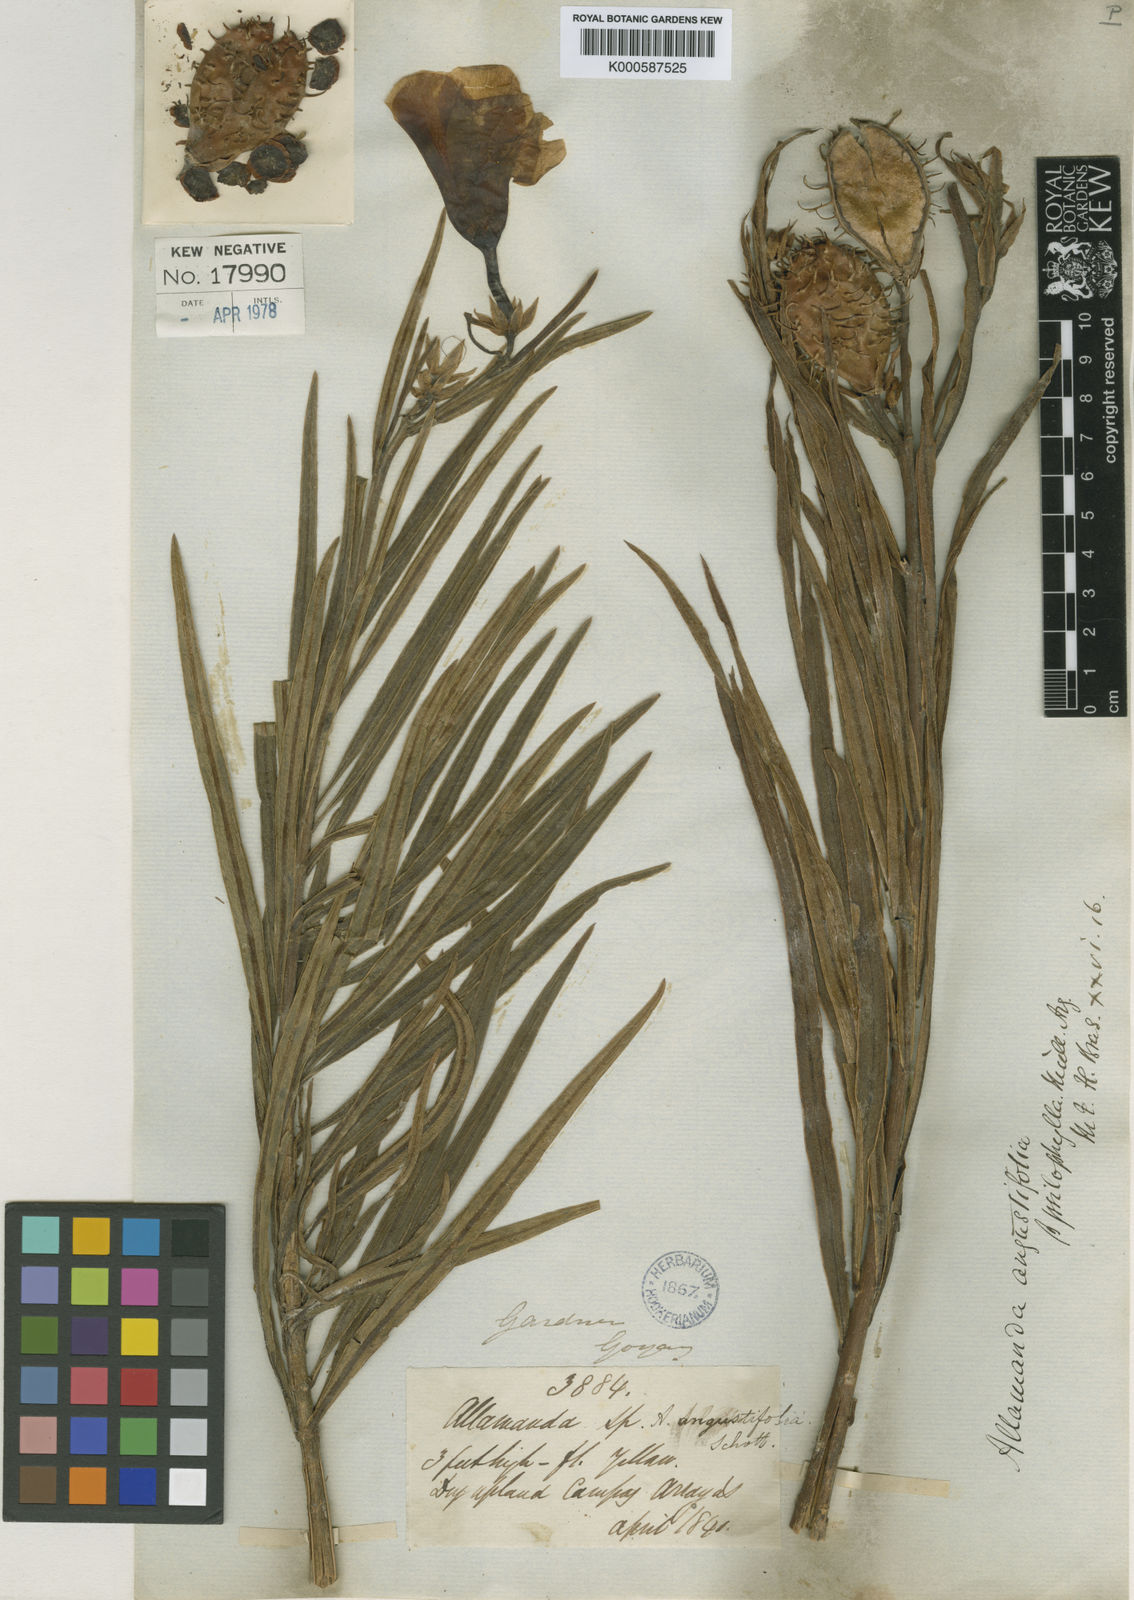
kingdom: Plantae
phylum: Tracheophyta
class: Magnoliopsida
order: Gentianales
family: Apocynaceae
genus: Allamanda
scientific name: Allamanda
